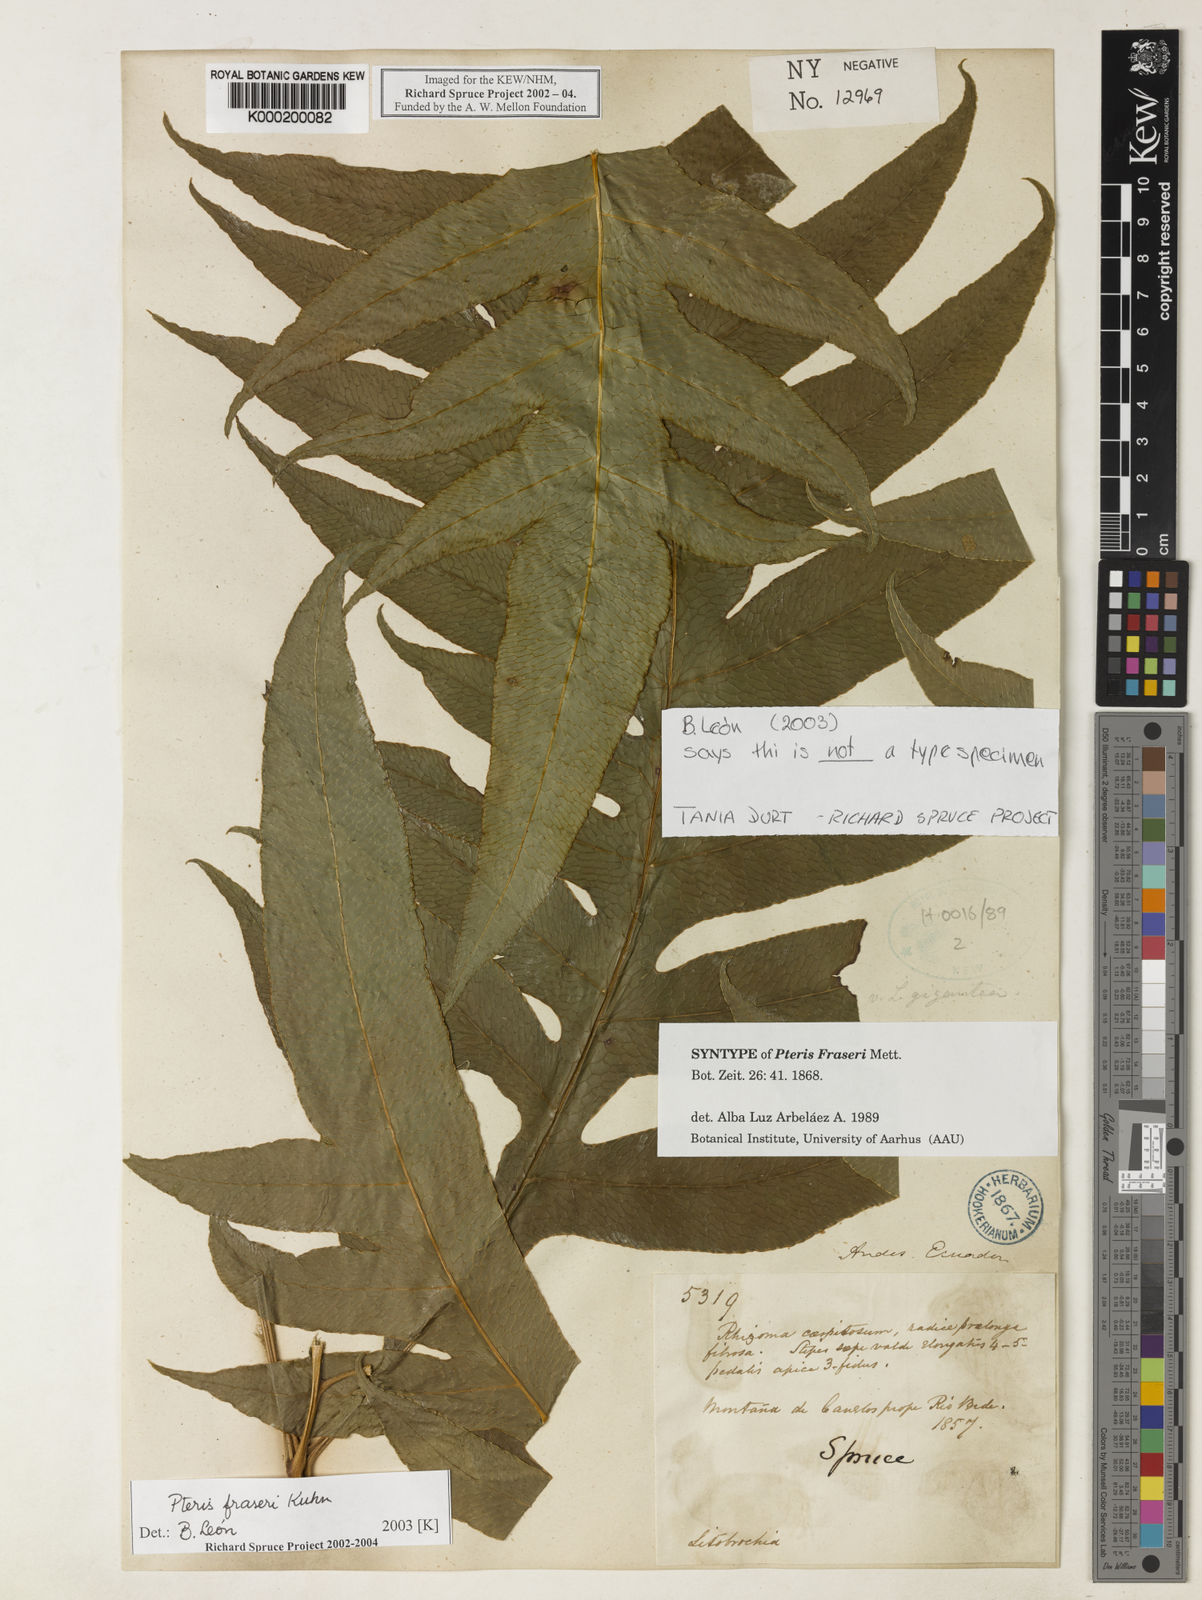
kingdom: Plantae
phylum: Tracheophyta
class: Polypodiopsida
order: Polypodiales
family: Pteridaceae
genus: Pteris
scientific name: Pteris
